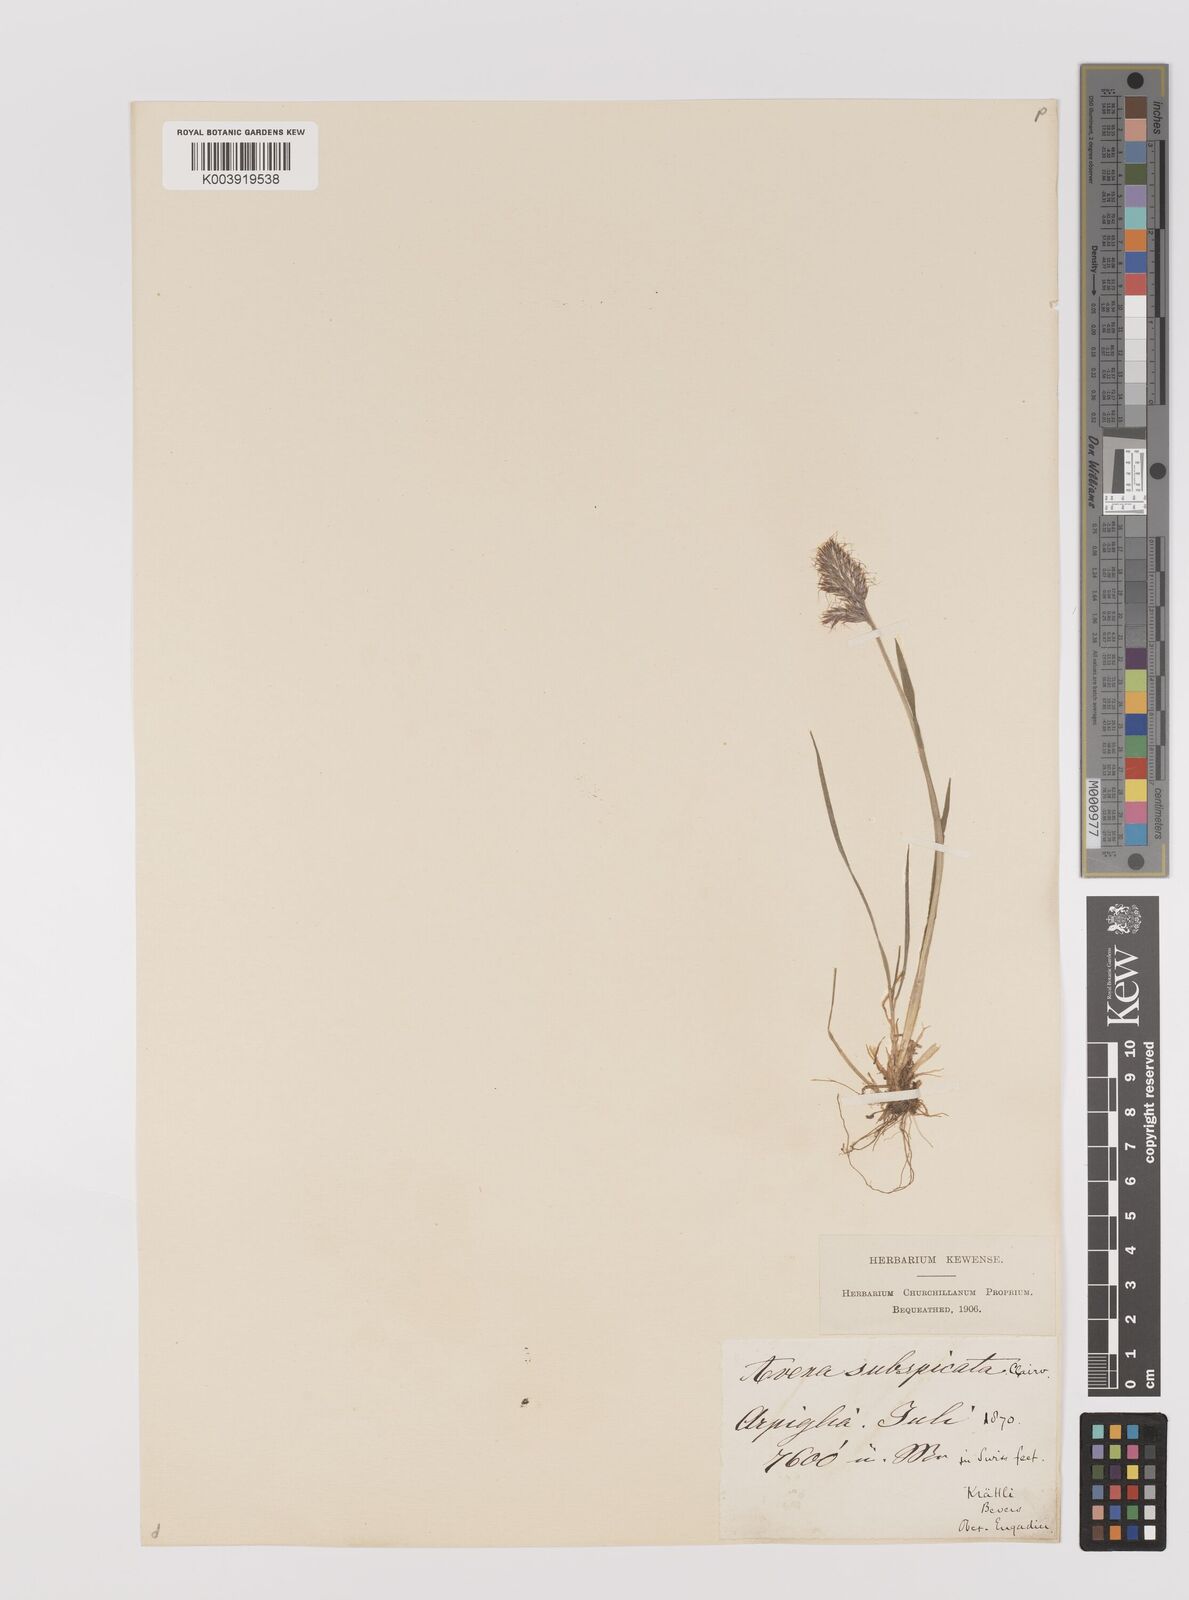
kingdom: Plantae
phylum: Tracheophyta
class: Liliopsida
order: Poales
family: Poaceae
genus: Koeleria
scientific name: Koeleria spicata
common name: Mountain trisetum
